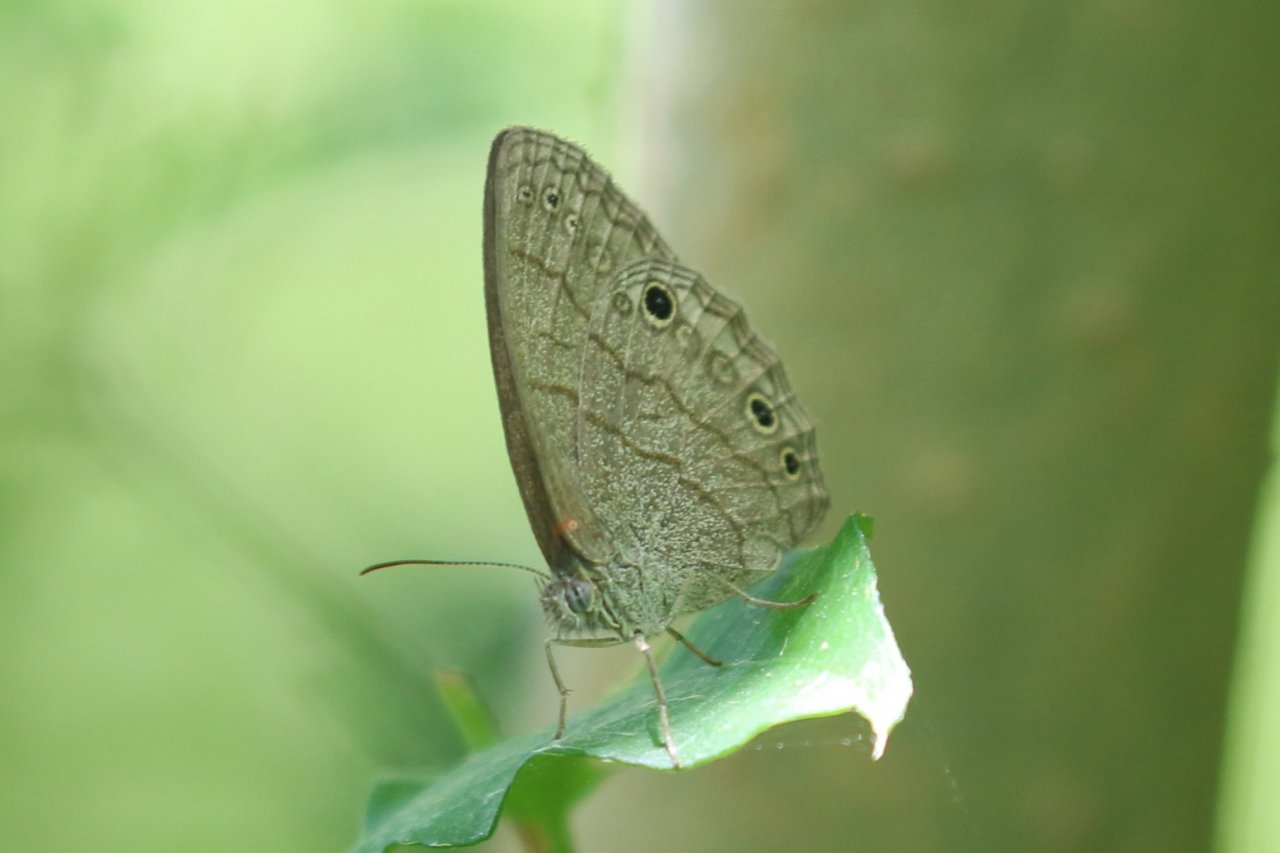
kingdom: Animalia
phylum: Arthropoda
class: Insecta
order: Lepidoptera
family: Nymphalidae
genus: Hermeuptychia
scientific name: Hermeuptychia hermybius
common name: South Texas Satyr
